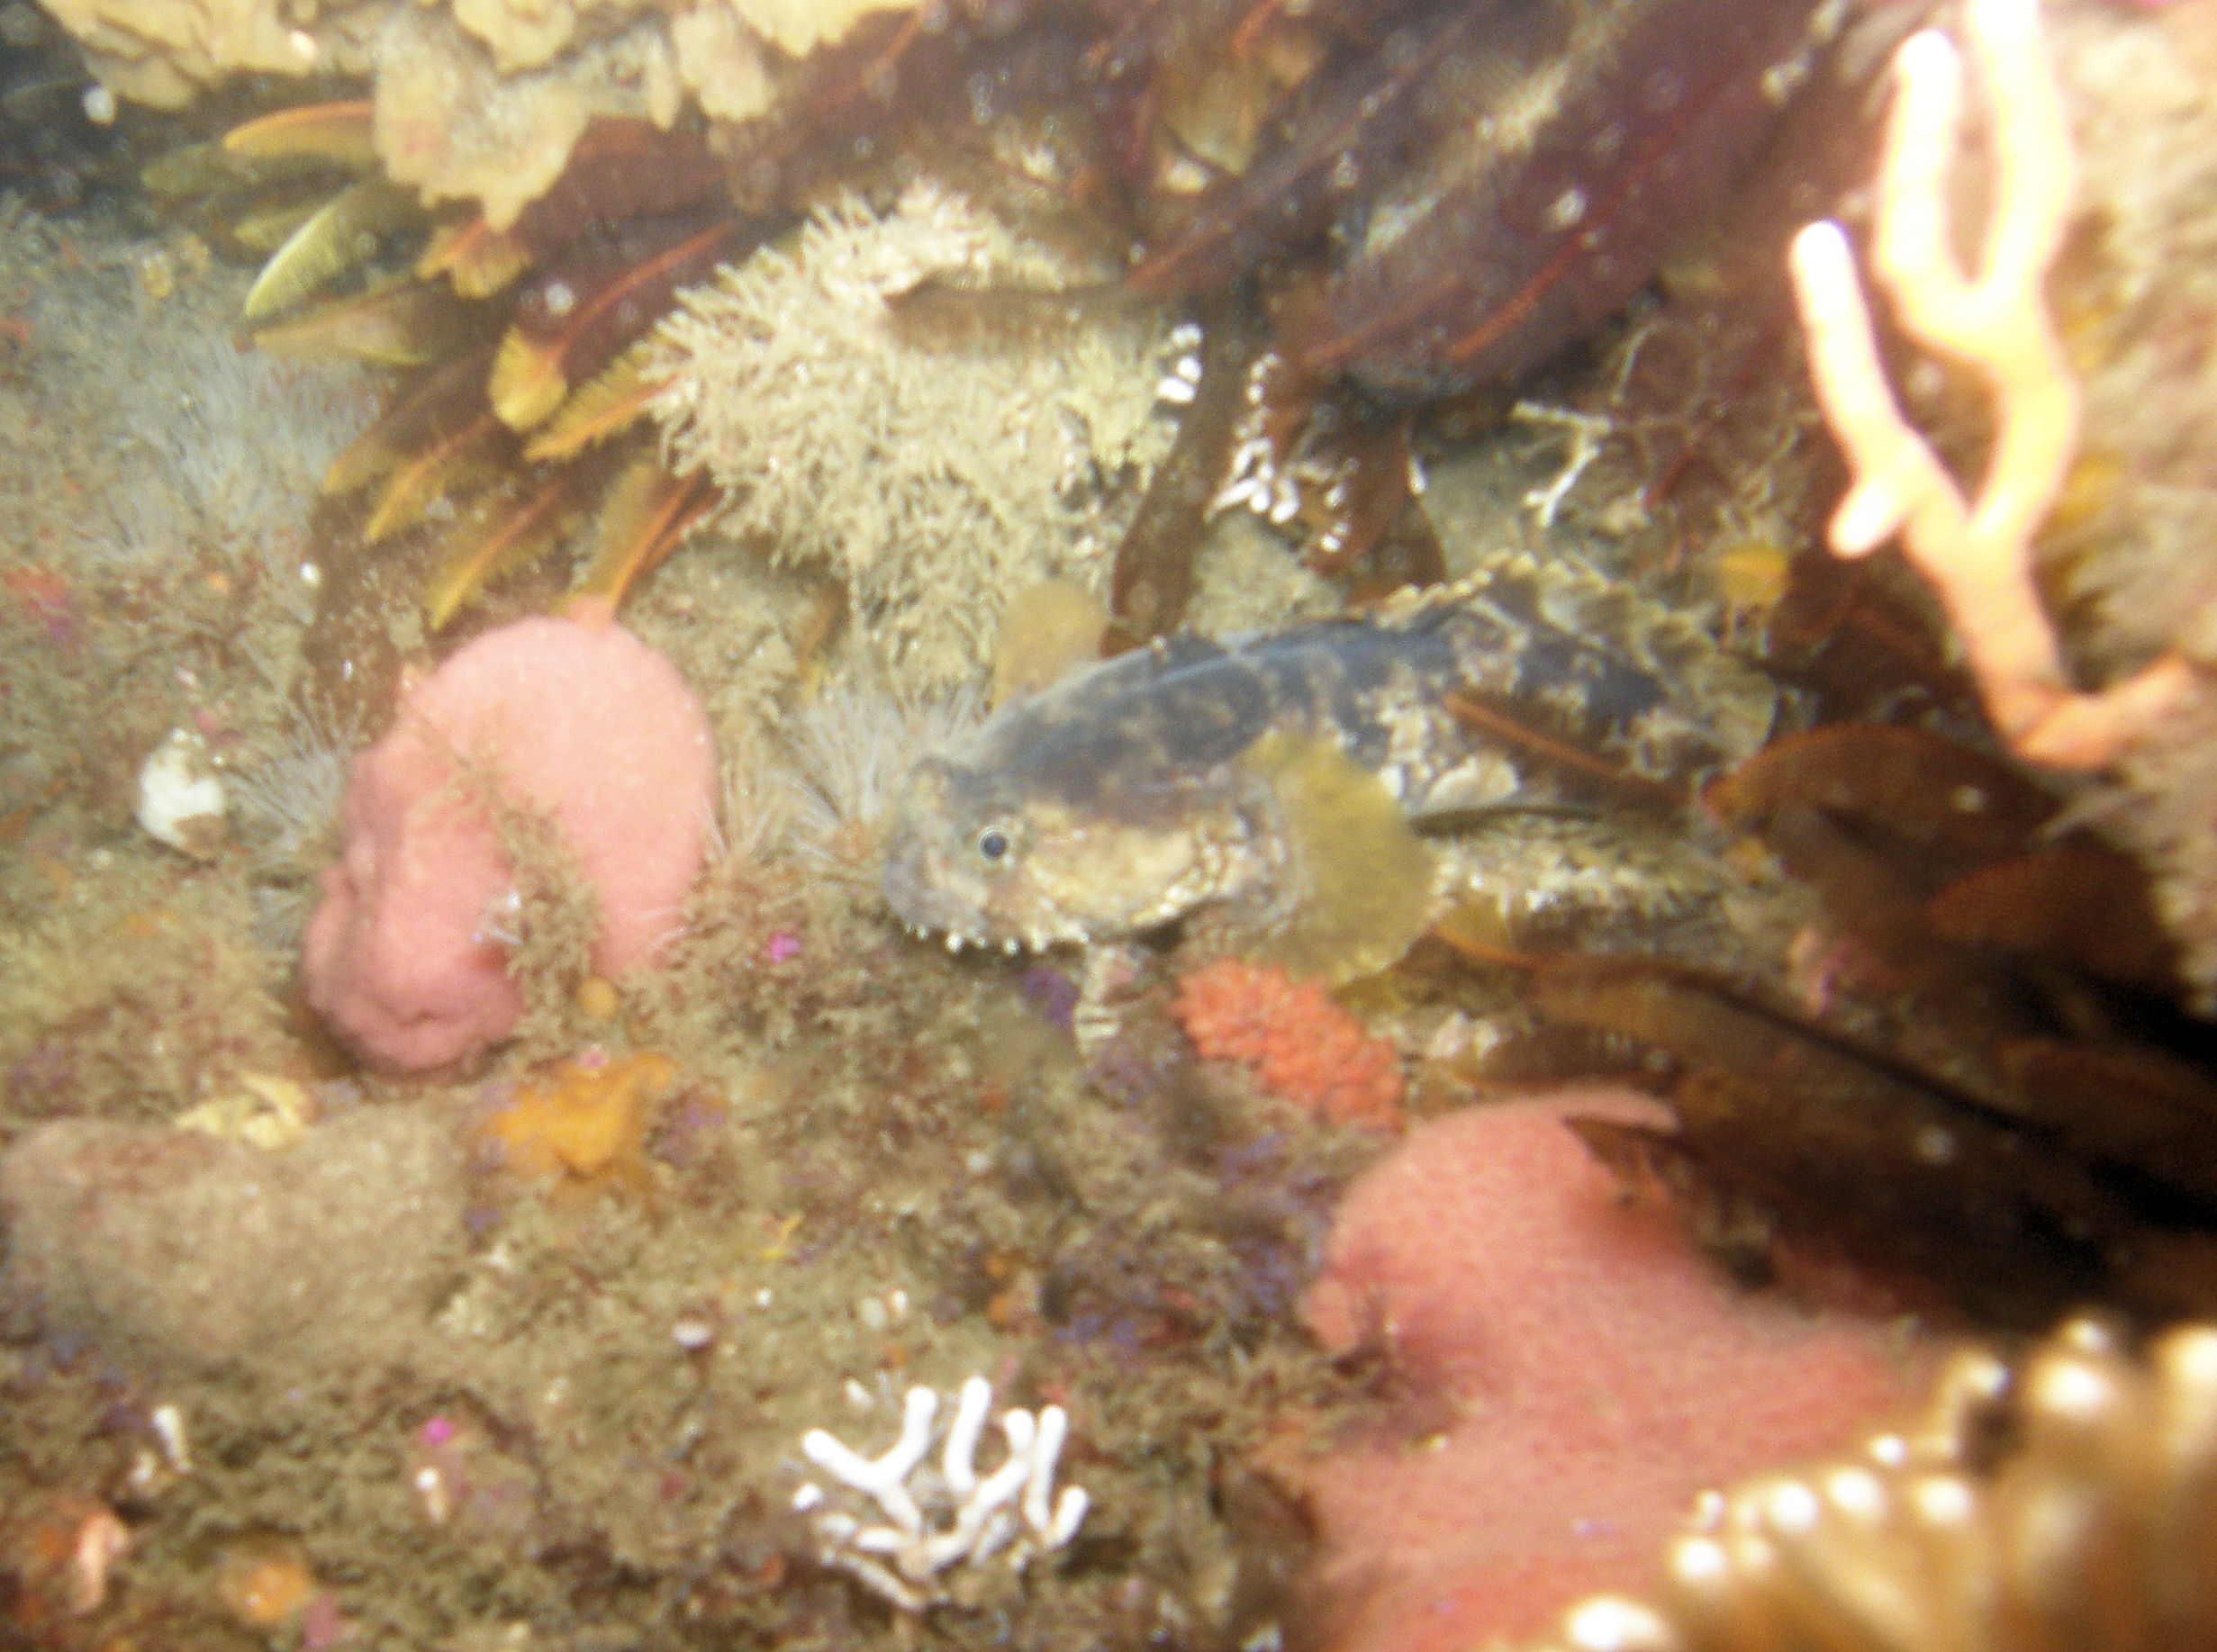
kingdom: Animalia
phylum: Chordata
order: Batrachoidiformes
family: Batrachoididae
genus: Austrobatrachus
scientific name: Austrobatrachus foedus
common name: Puzzled toadfish
